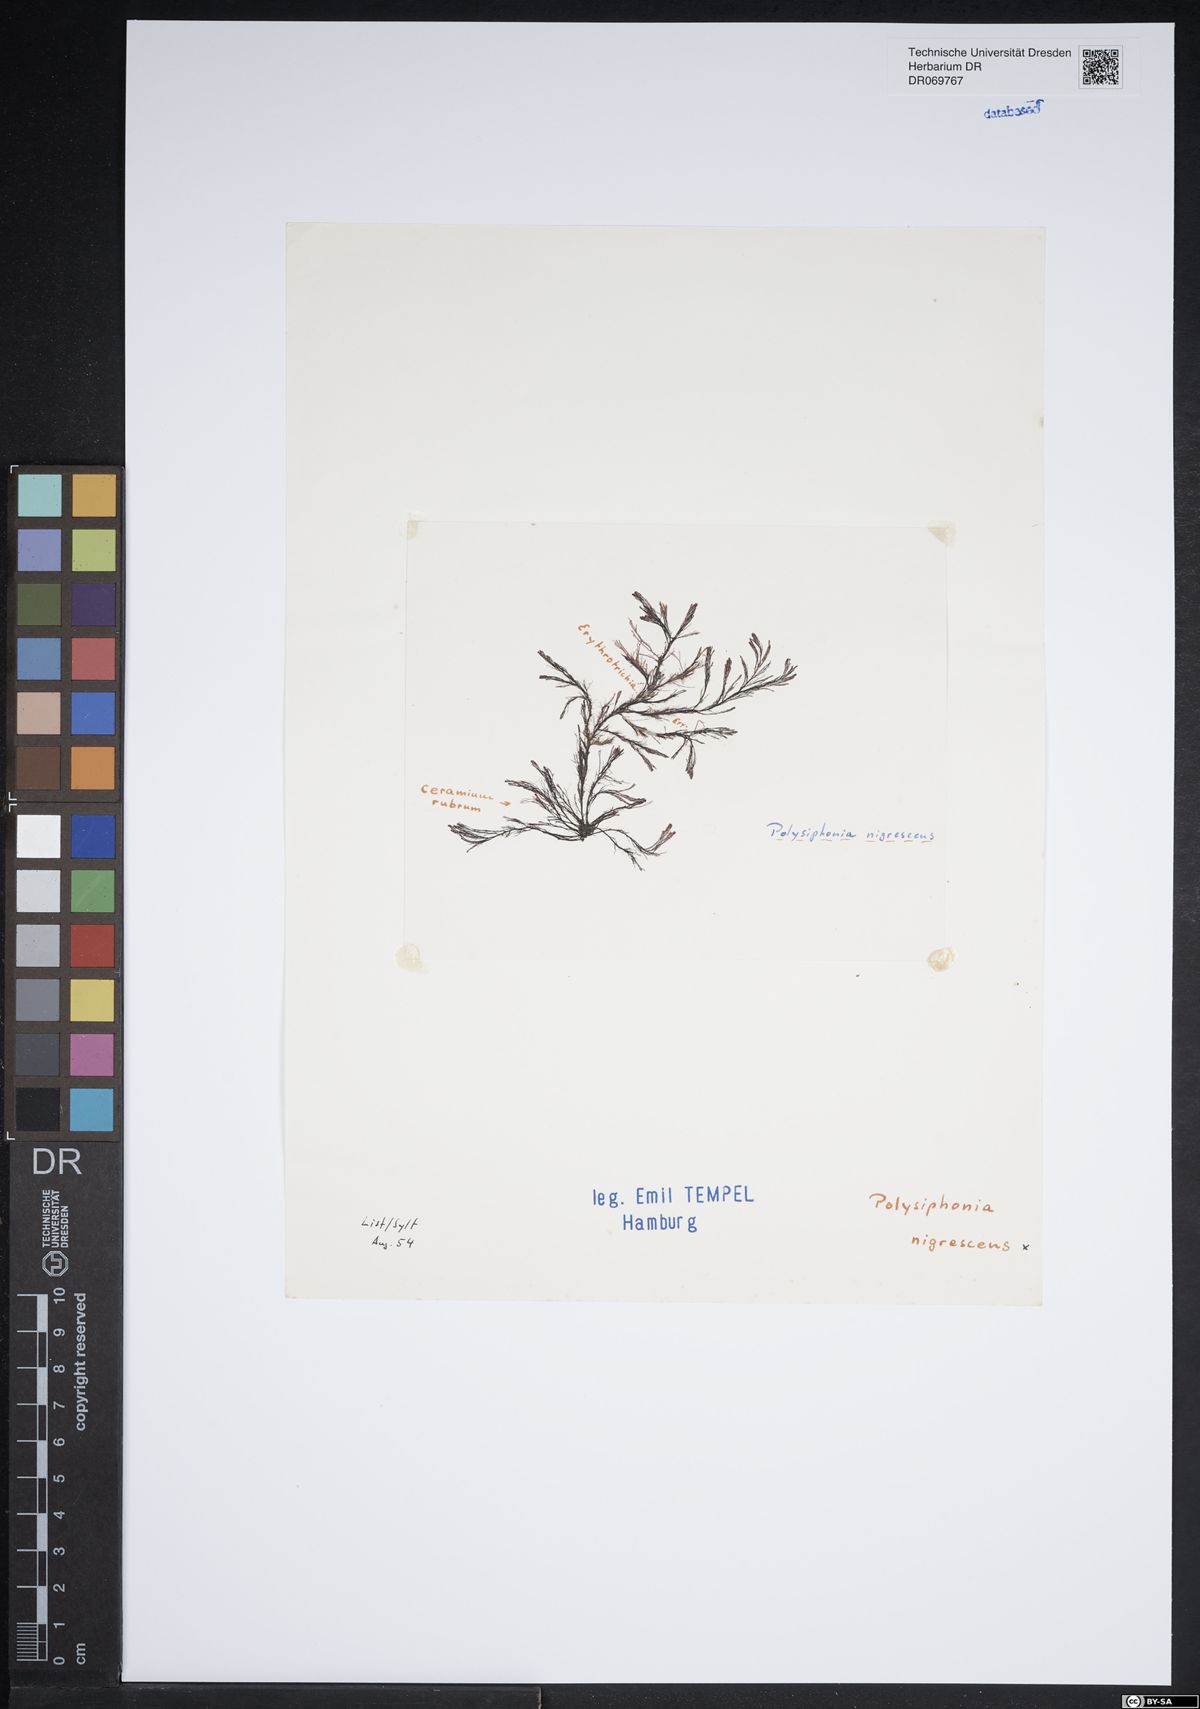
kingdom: Plantae
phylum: Rhodophyta
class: Florideophyceae
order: Ceramiales
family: Rhodomelaceae
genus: Polysiphonia
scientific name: Polysiphonia nigrescens
